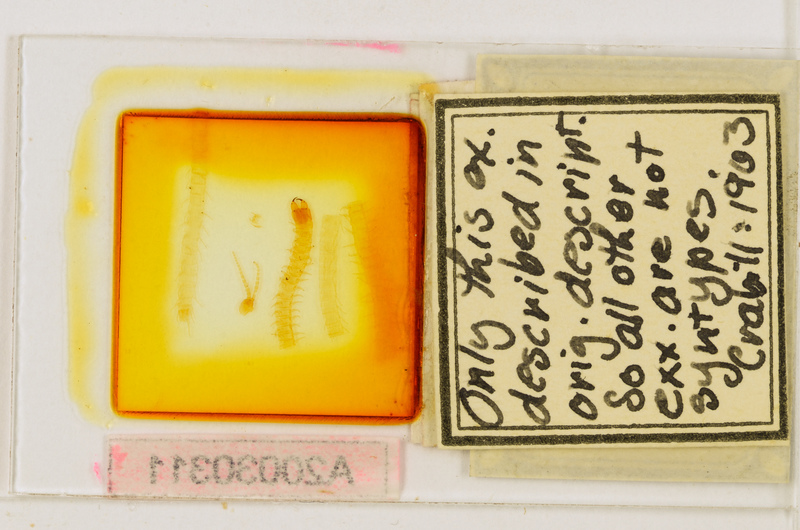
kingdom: Animalia
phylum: Arthropoda
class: Chilopoda
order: Geophilomorpha
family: Geophilidae
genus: Eurytion
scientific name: Eurytion dudichii
